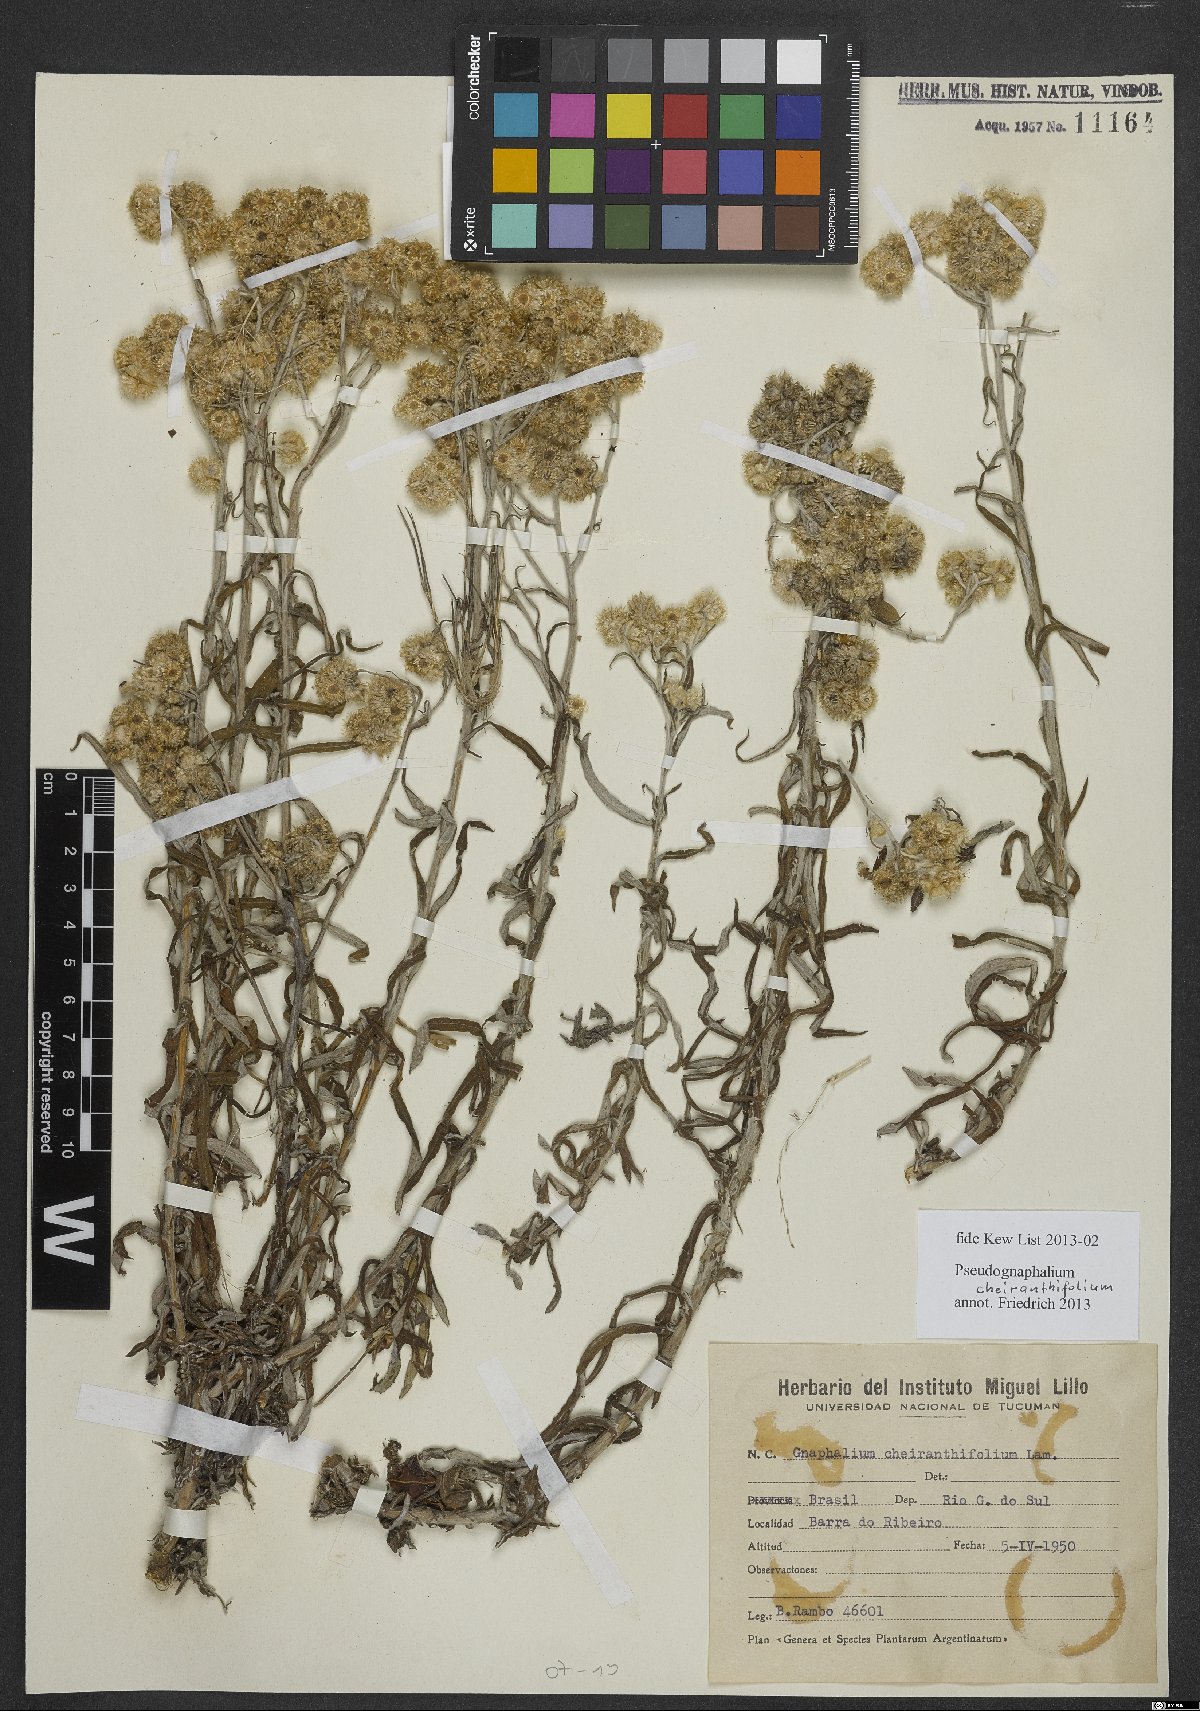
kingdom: Plantae
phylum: Tracheophyta
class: Magnoliopsida
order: Asterales
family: Asteraceae
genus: Pseudognaphalium
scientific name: Pseudognaphalium cheiranthifolium
